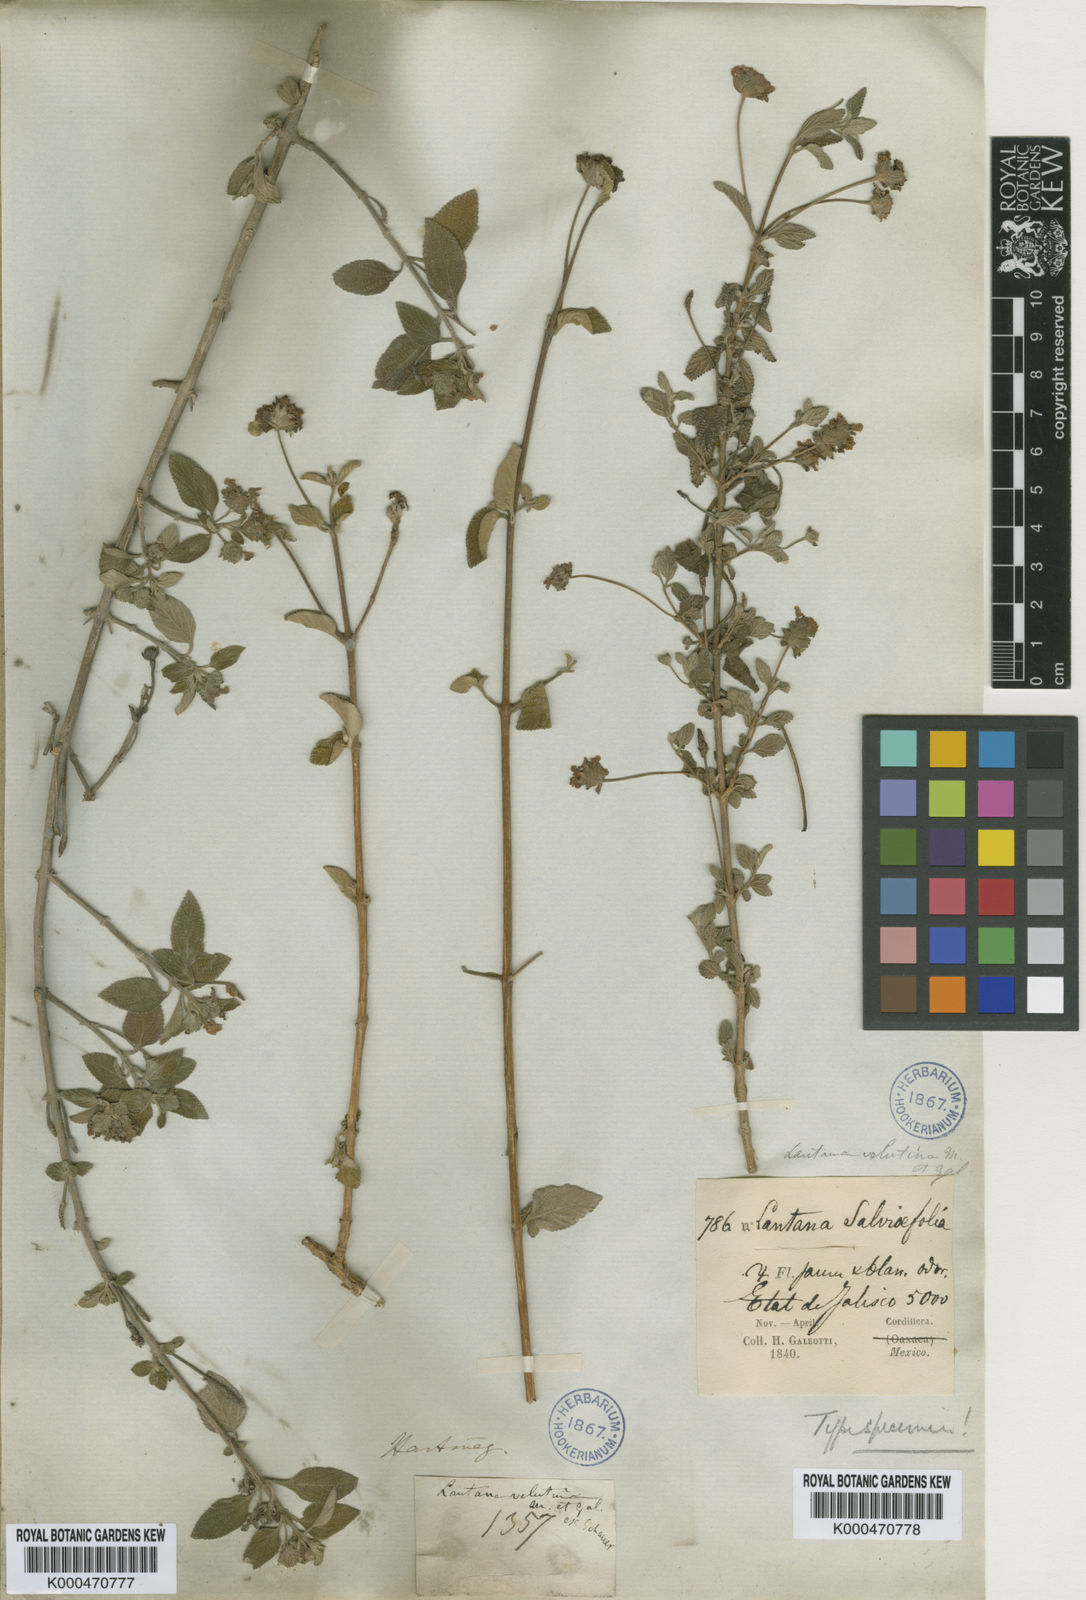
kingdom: Plantae
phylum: Tracheophyta
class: Magnoliopsida
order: Lamiales
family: Verbenaceae
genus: Lantana
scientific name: Lantana velutina
